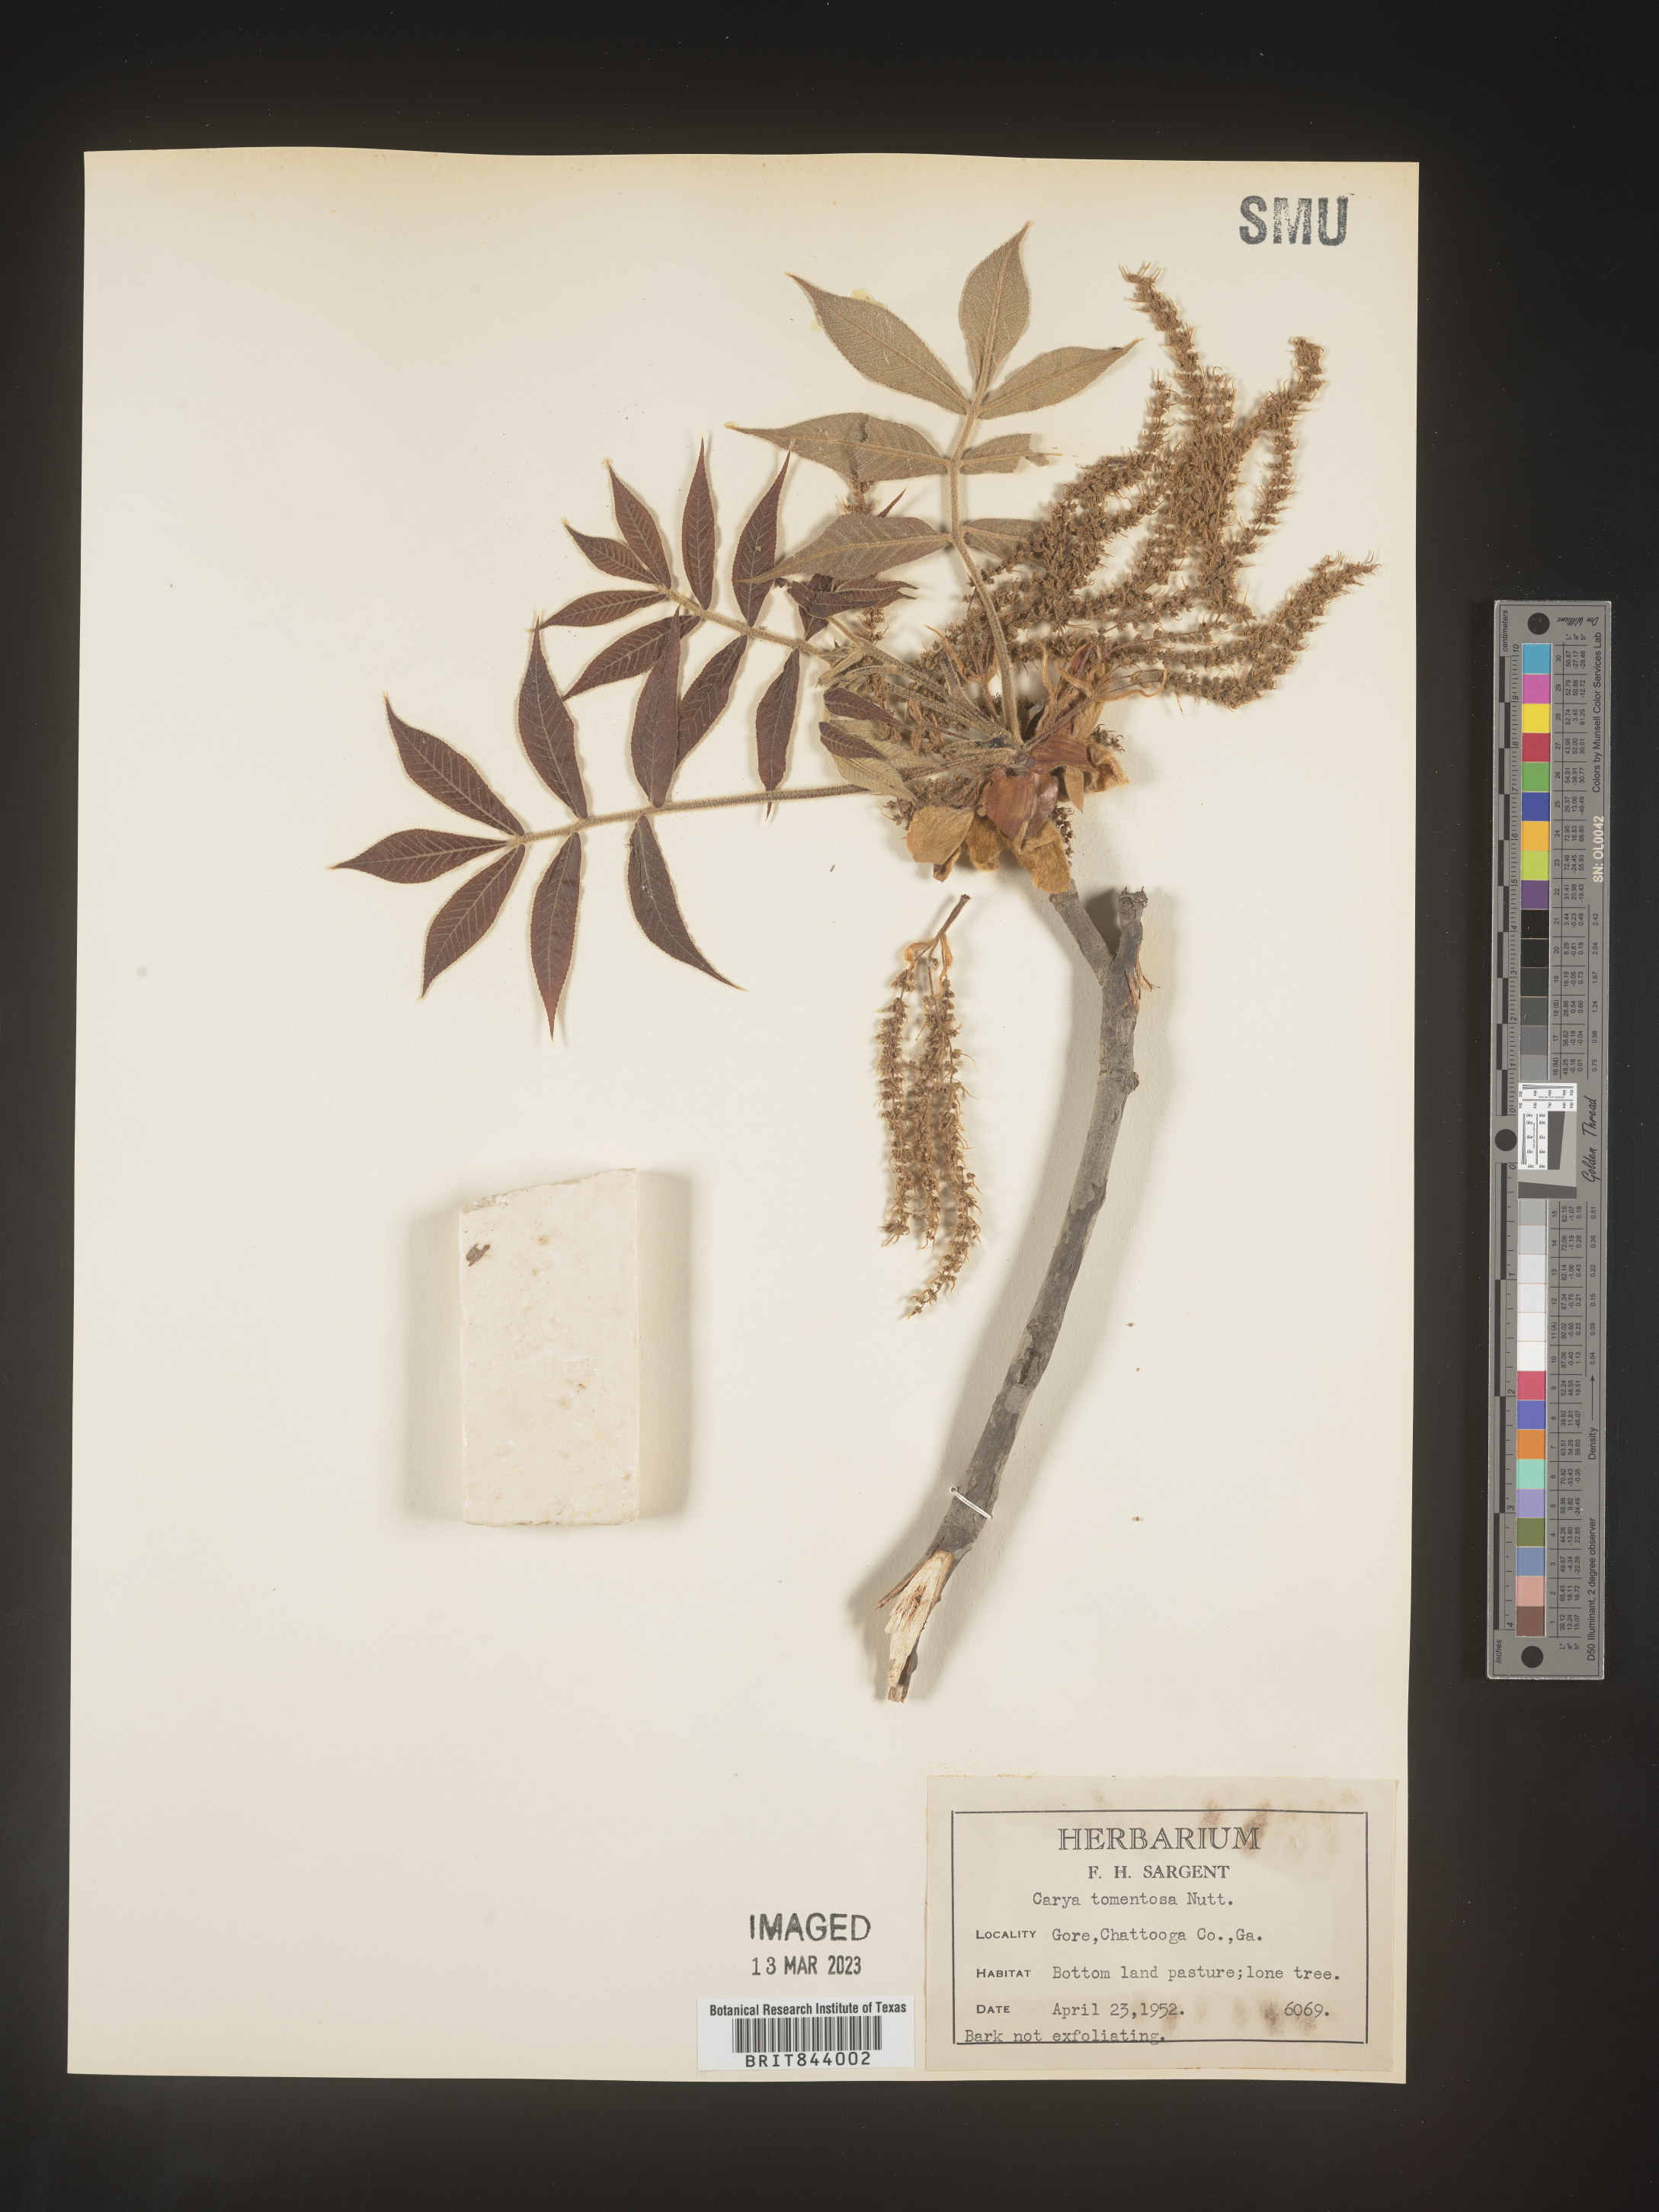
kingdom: Plantae
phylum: Tracheophyta
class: Magnoliopsida
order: Fagales
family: Juglandaceae
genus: Carya
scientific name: Carya alba
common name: Mockernut hickory
